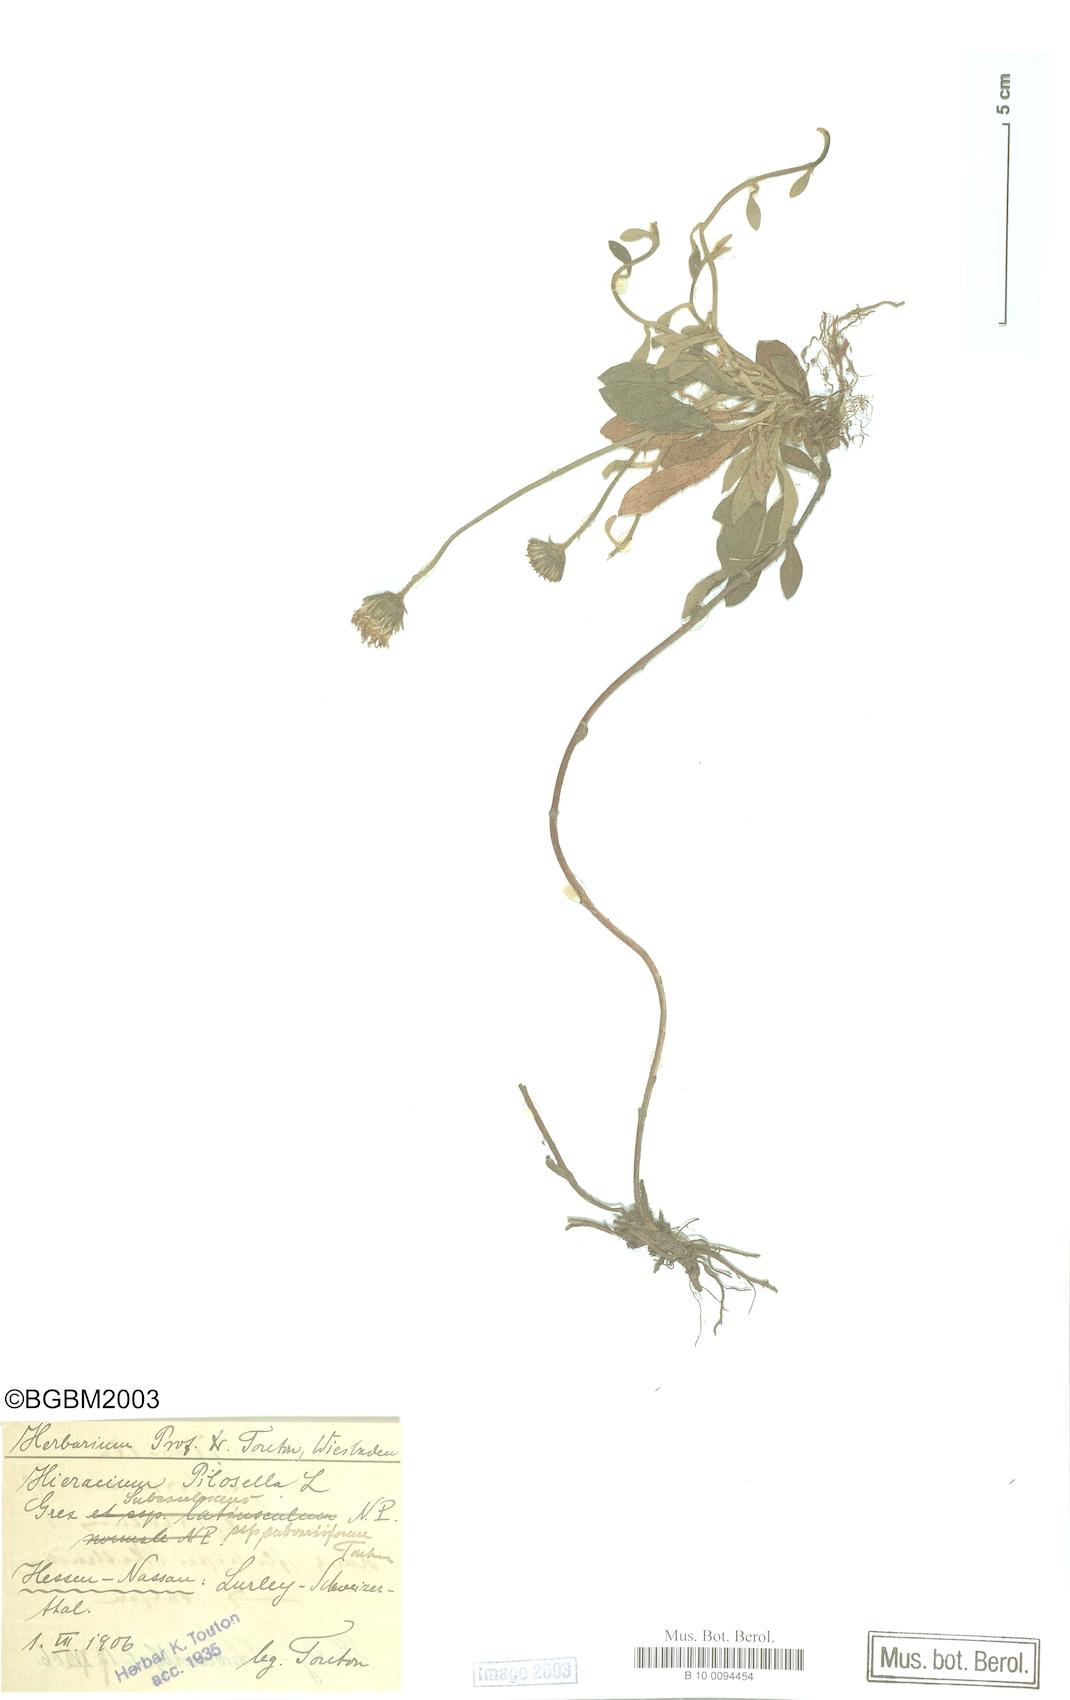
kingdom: Plantae
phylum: Tracheophyta
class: Magnoliopsida
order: Asterales
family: Asteraceae
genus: Pilosella
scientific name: Pilosella officinarum
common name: Mouse-ear hawkweed
